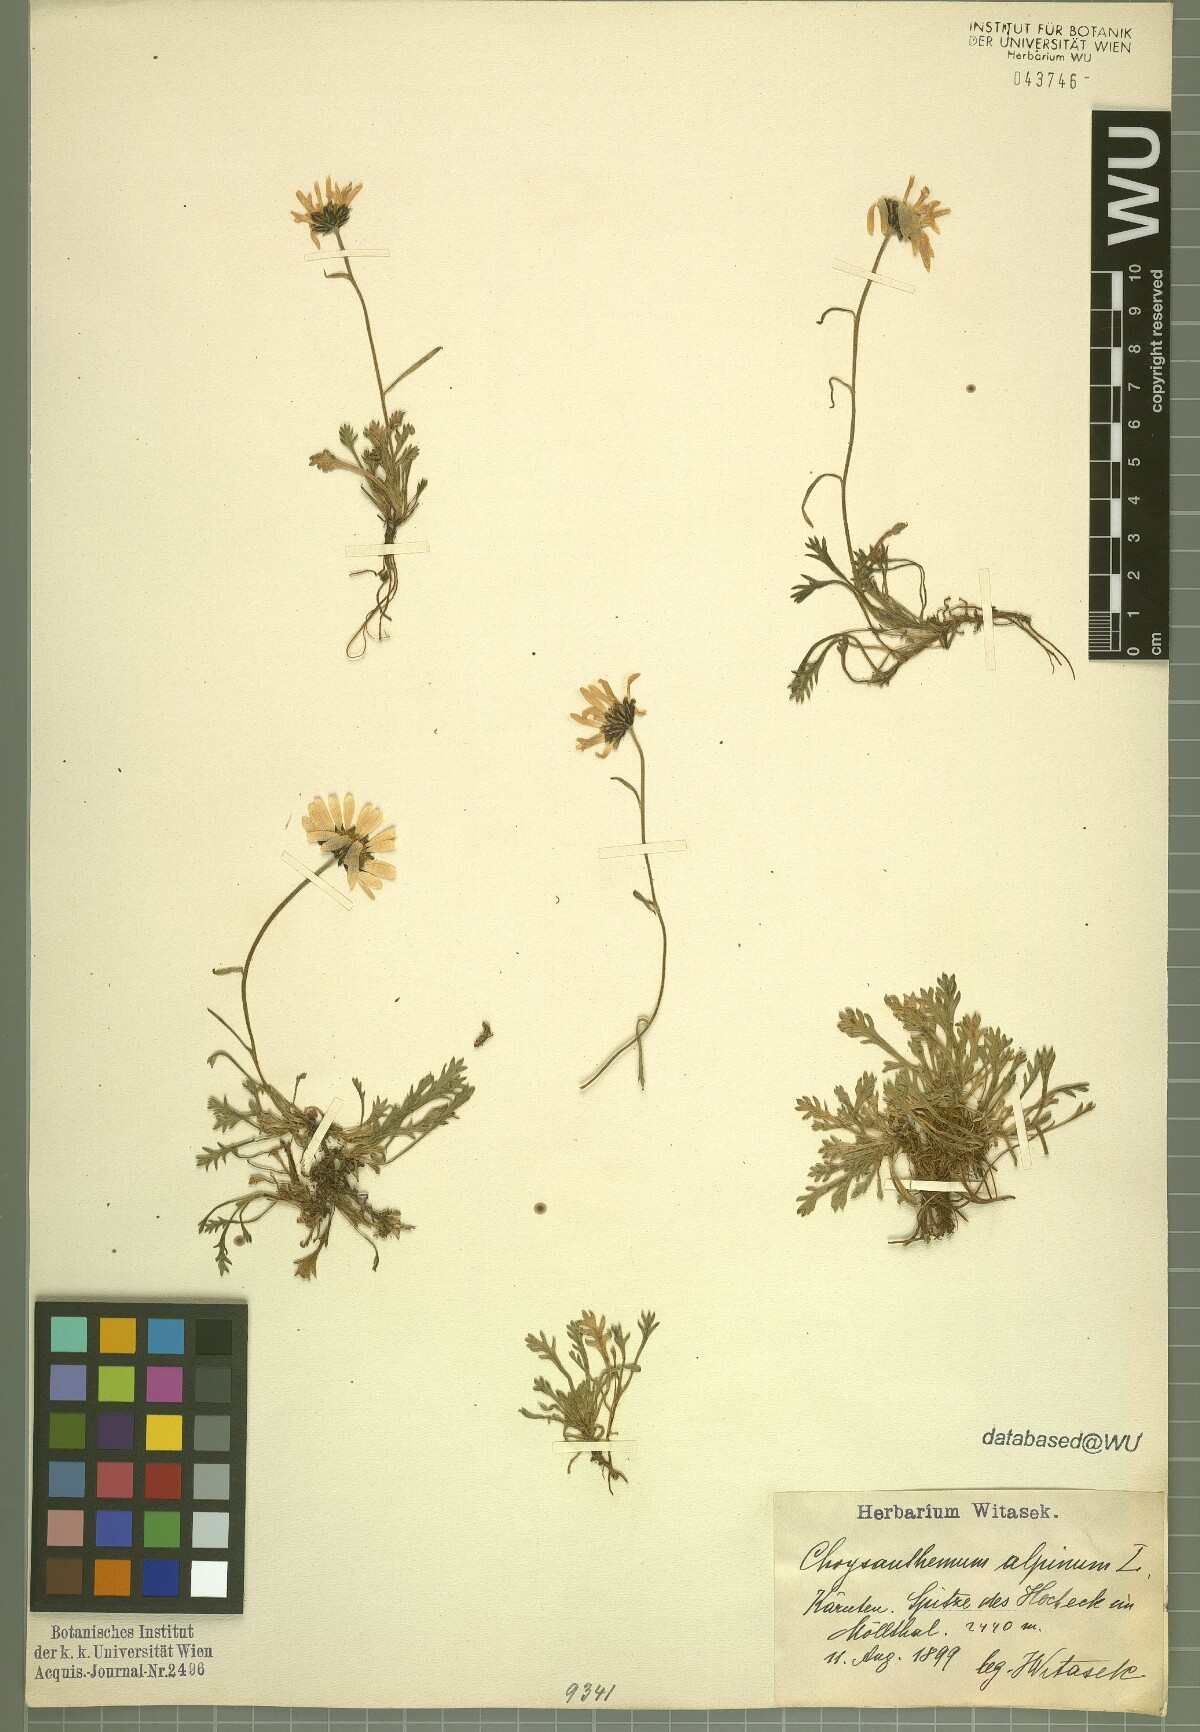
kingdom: Plantae
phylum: Tracheophyta
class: Magnoliopsida
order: Asterales
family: Asteraceae
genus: Leucanthemopsis
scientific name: Leucanthemopsis alpina
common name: Alpine moon daisy
